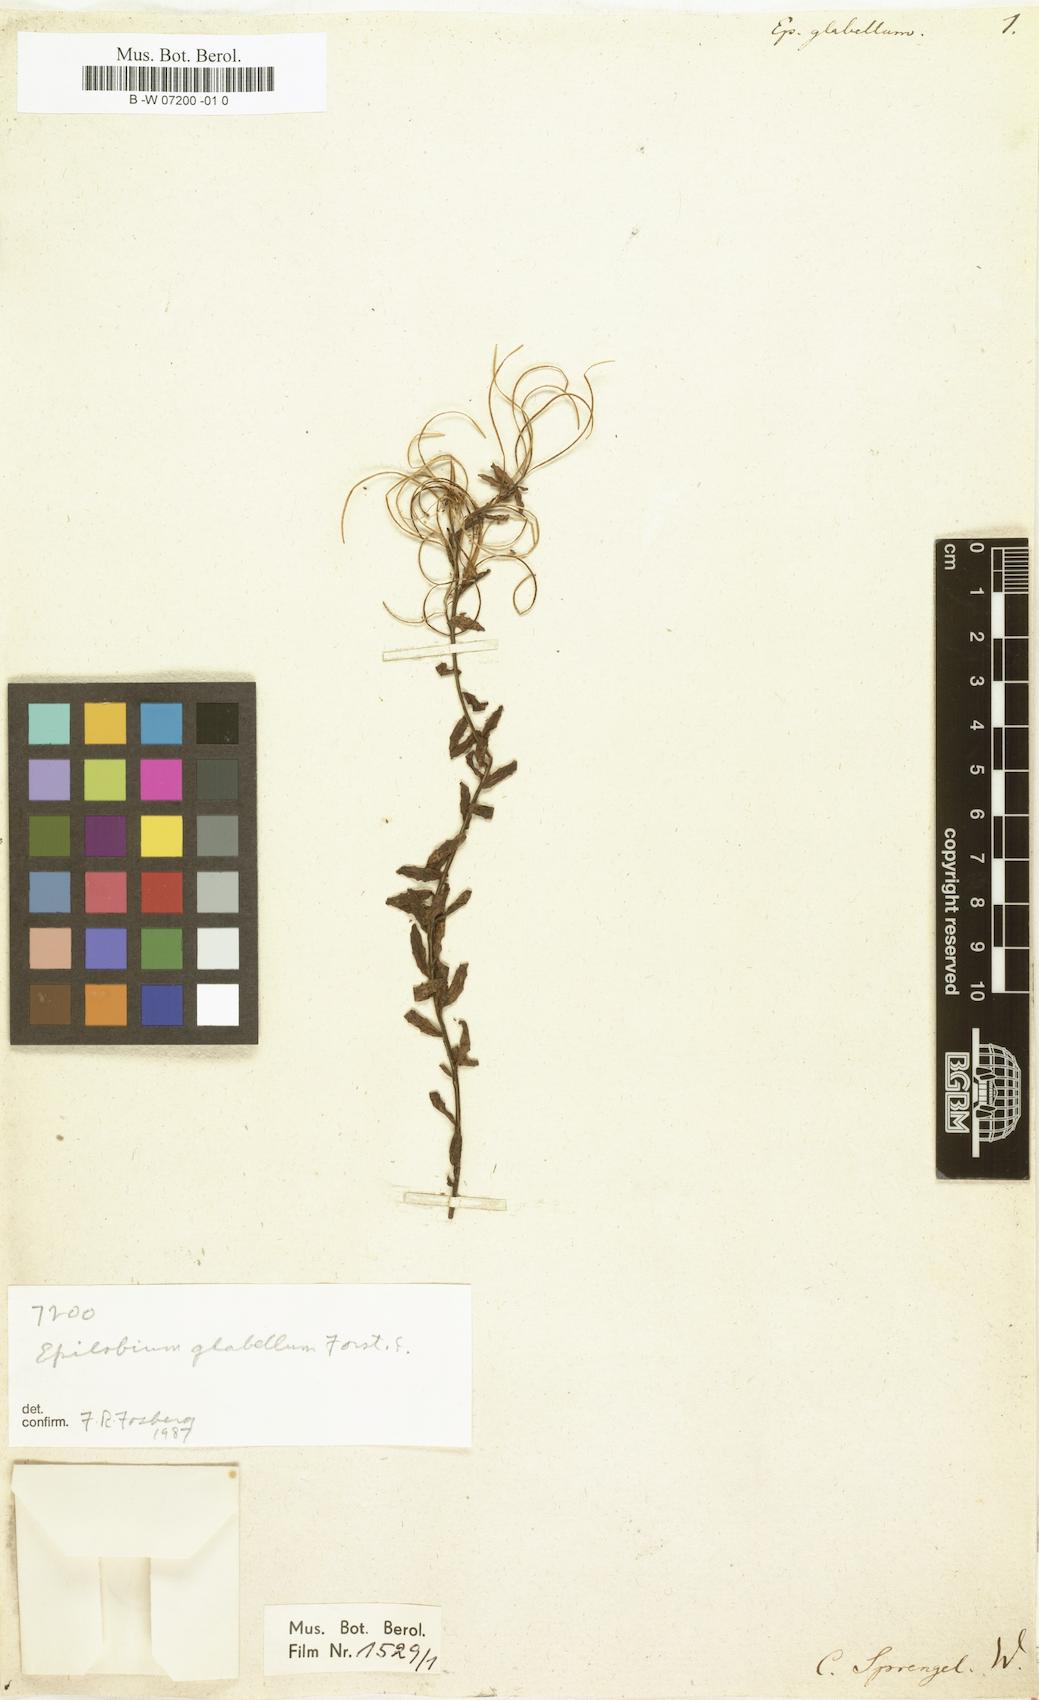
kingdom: Plantae
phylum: Tracheophyta
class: Magnoliopsida
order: Myrtales
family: Onagraceae
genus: Epilobium
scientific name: Epilobium glabellum
